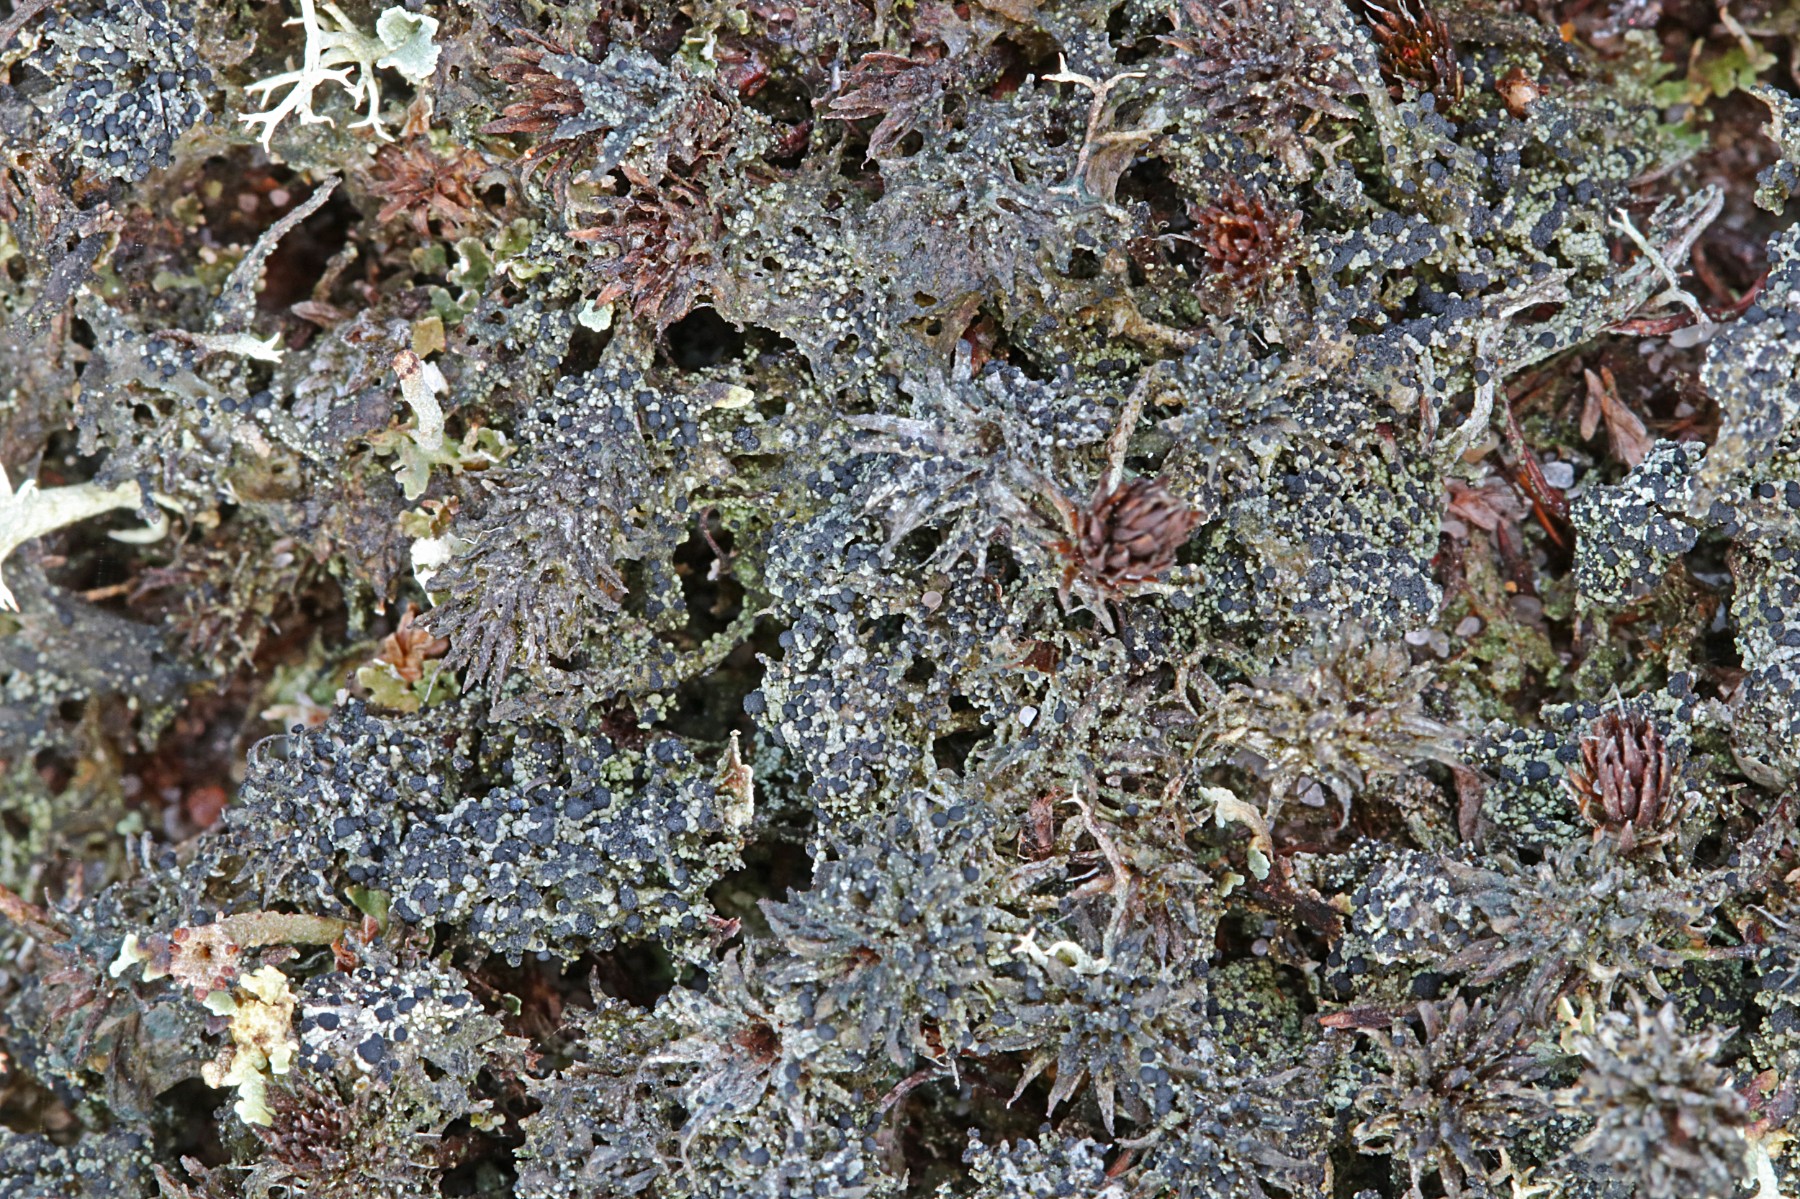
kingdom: Fungi
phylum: Ascomycota
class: Lecanoromycetes
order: Lecanorales
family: Byssolomataceae
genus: Micarea
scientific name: Micarea lignaria
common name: tørve-knaplav
